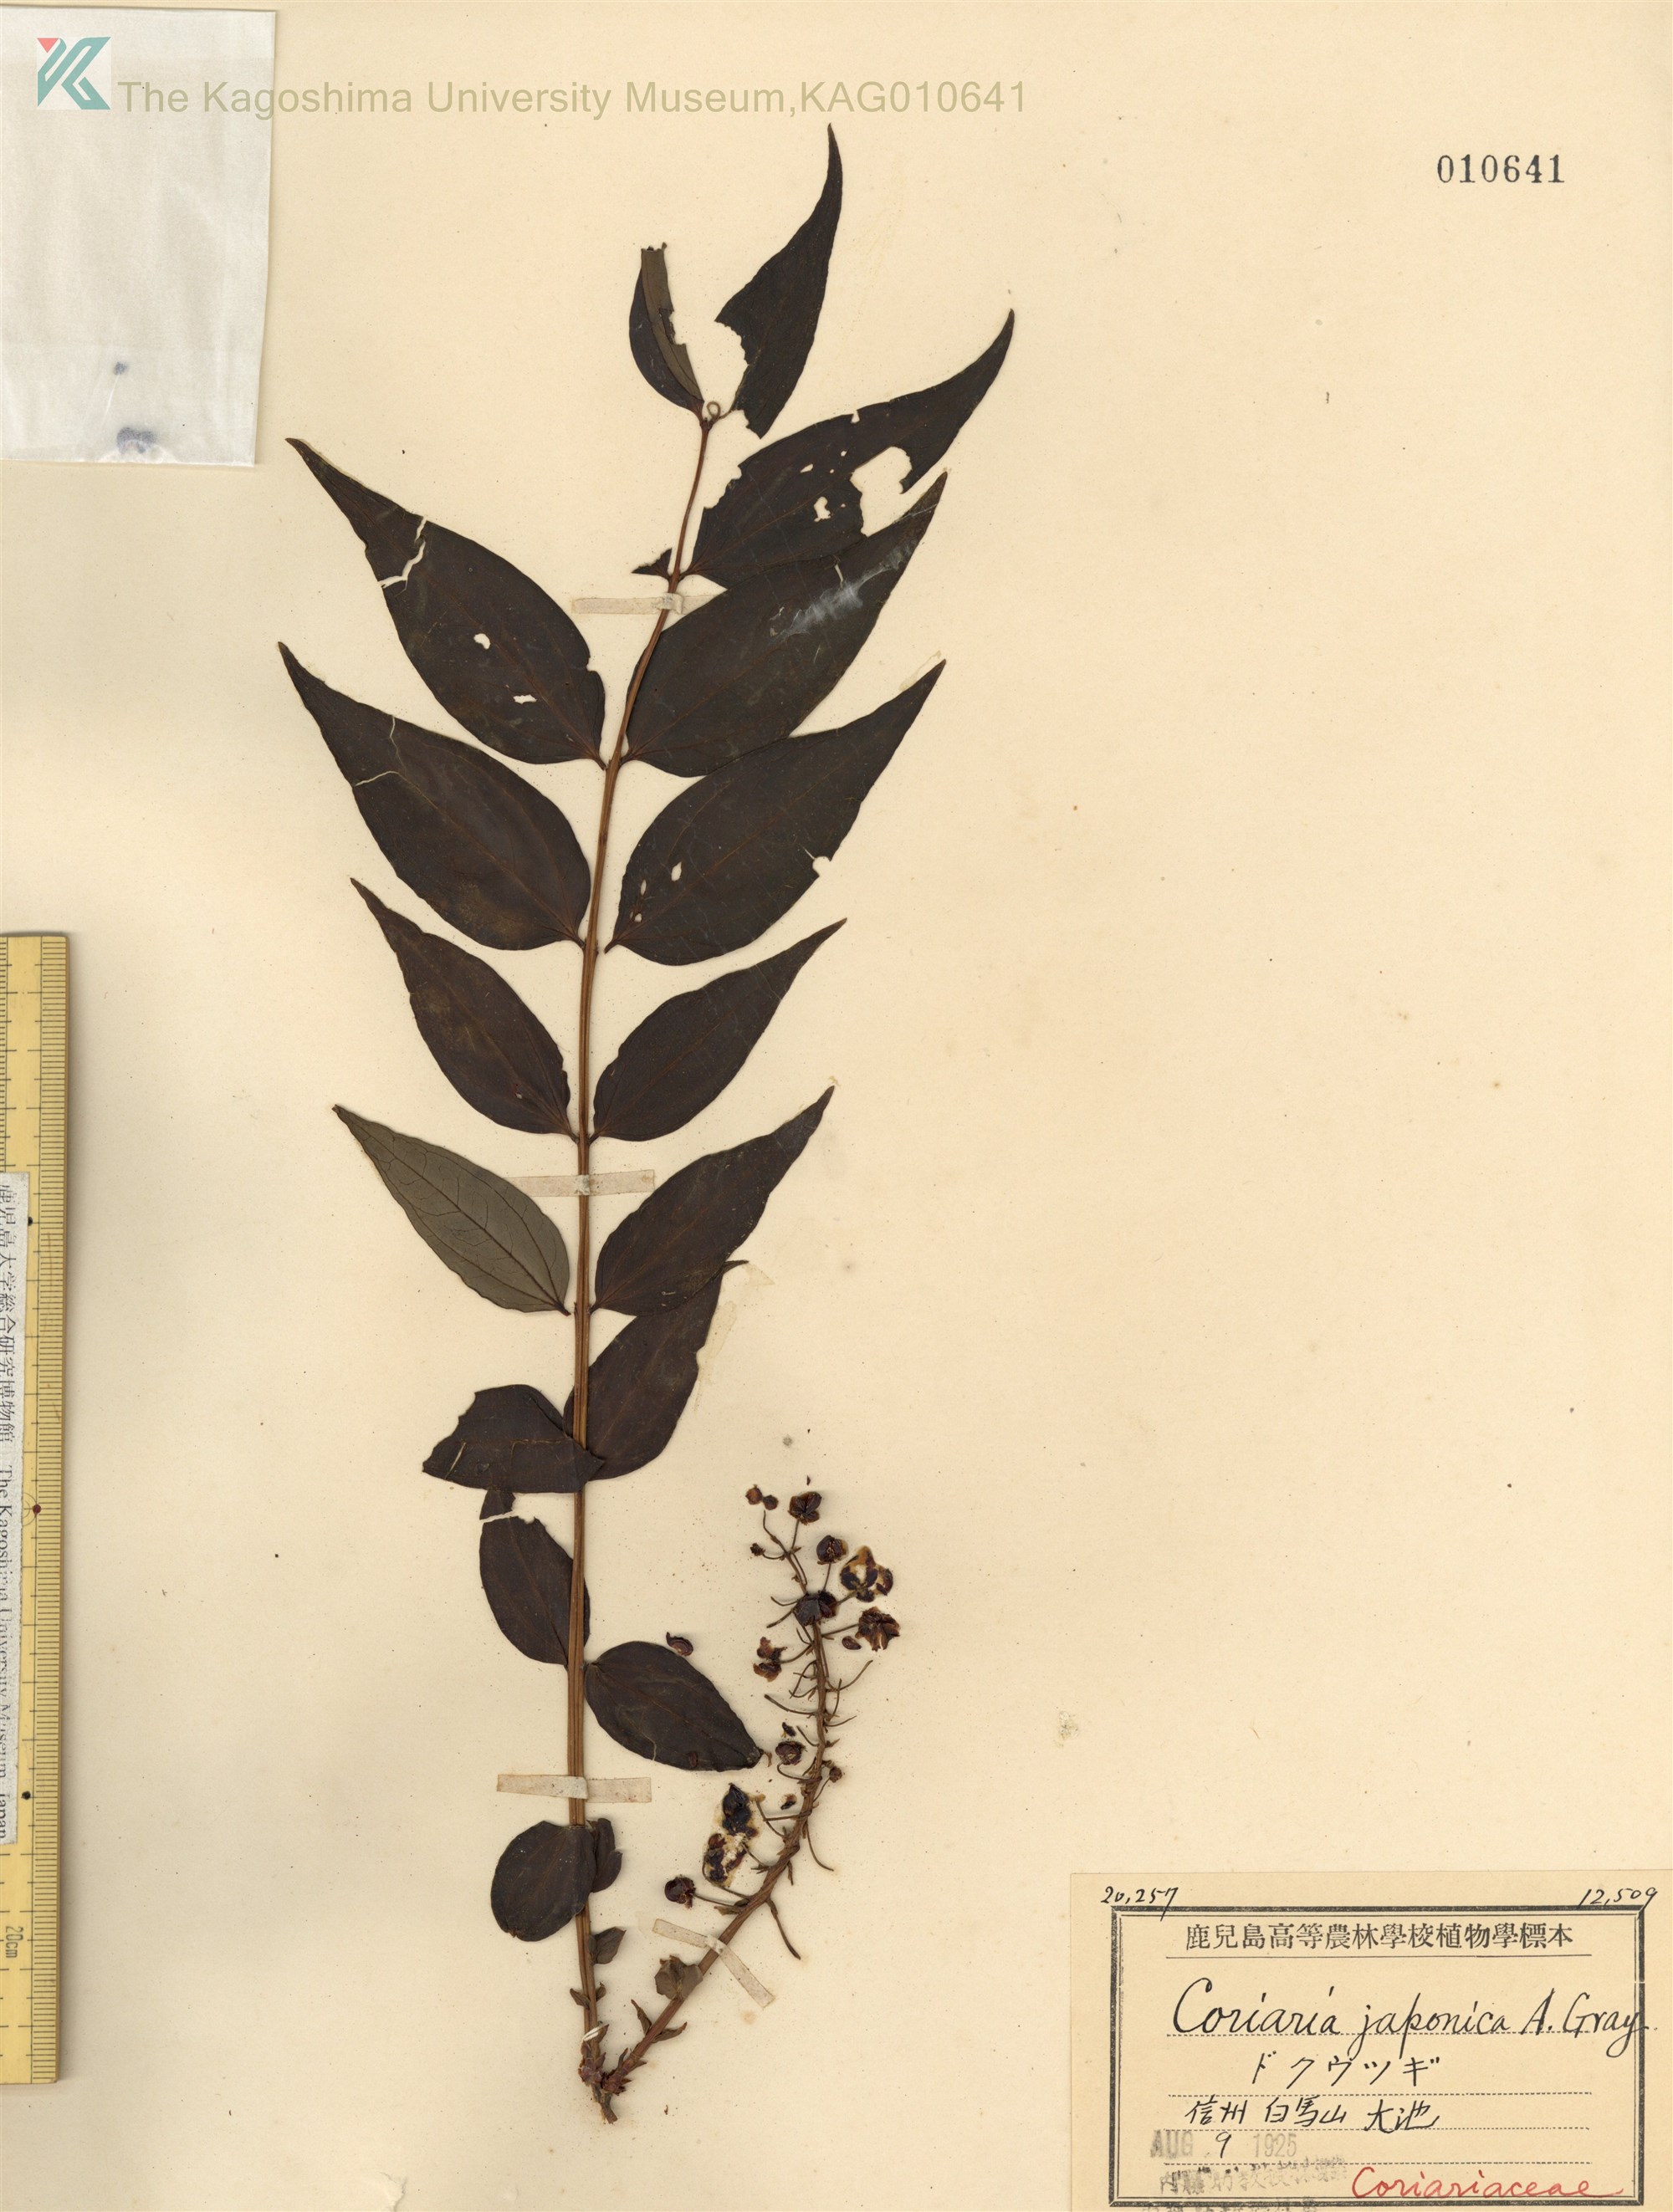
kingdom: Plantae
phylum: Tracheophyta
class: Magnoliopsida
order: Cucurbitales
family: Coriariaceae
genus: Coriaria
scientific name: Coriaria japonica
